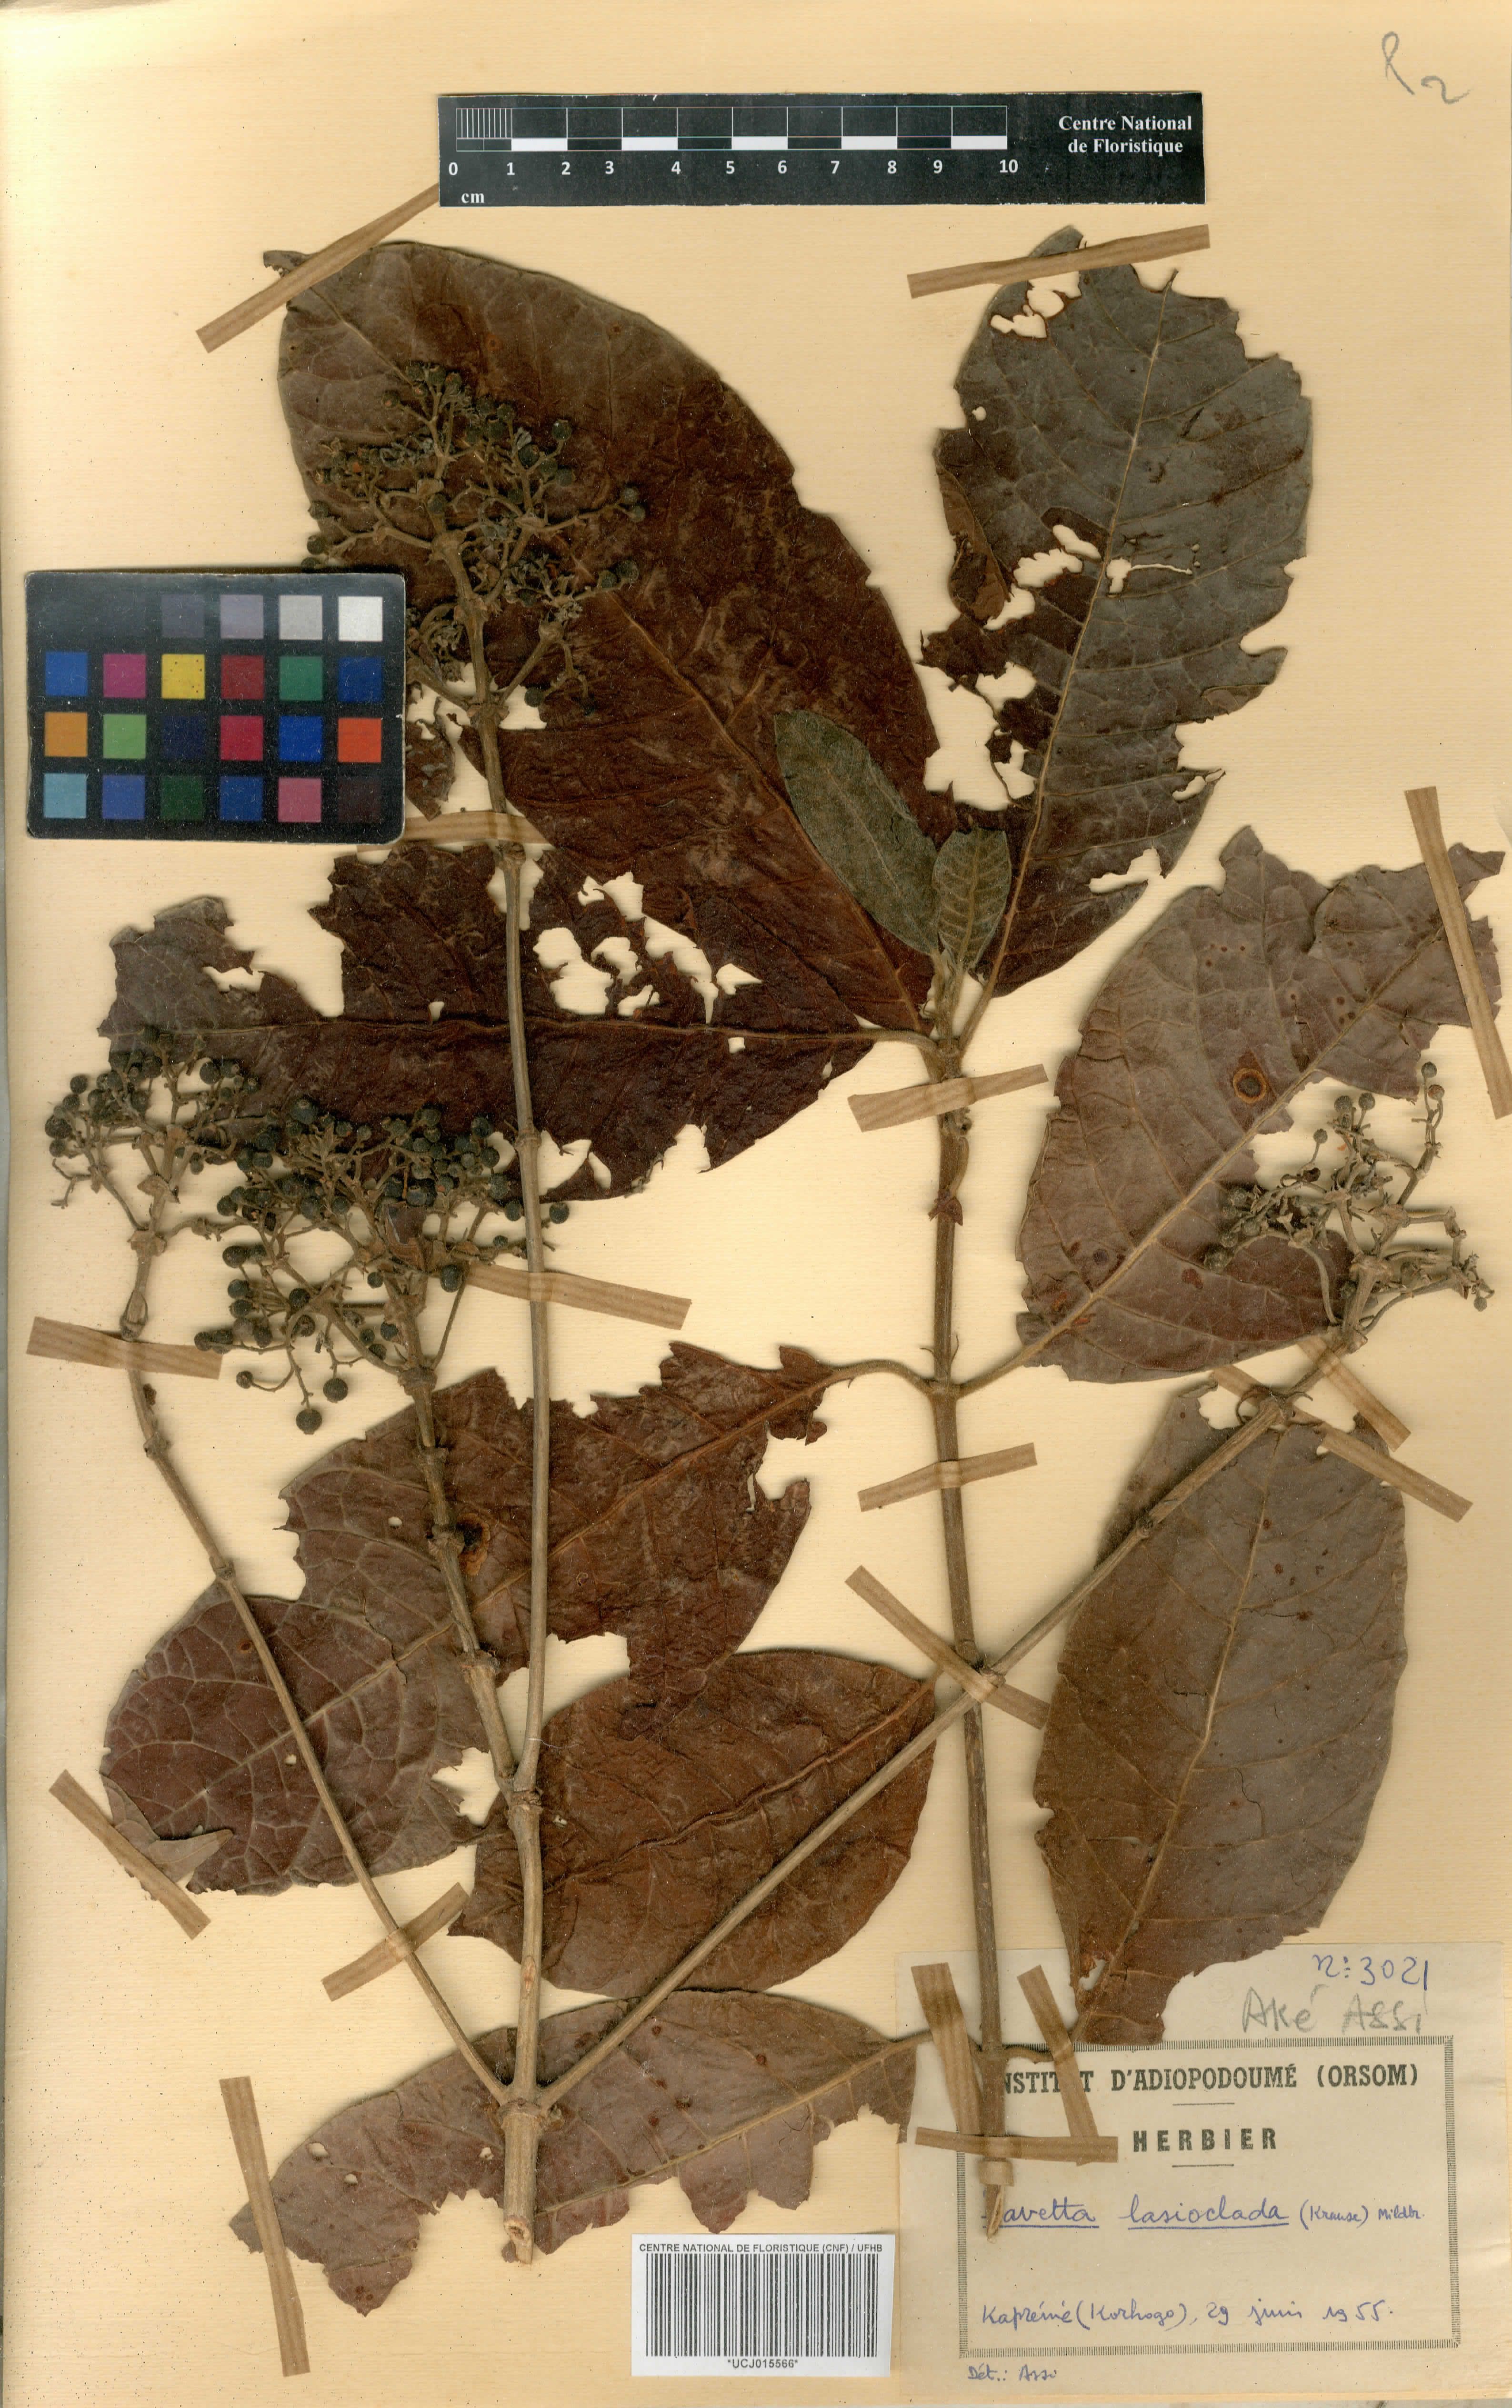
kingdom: Plantae
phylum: Tracheophyta
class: Magnoliopsida
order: Gentianales
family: Rubiaceae
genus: Pavetta
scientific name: Pavetta lasioclada
